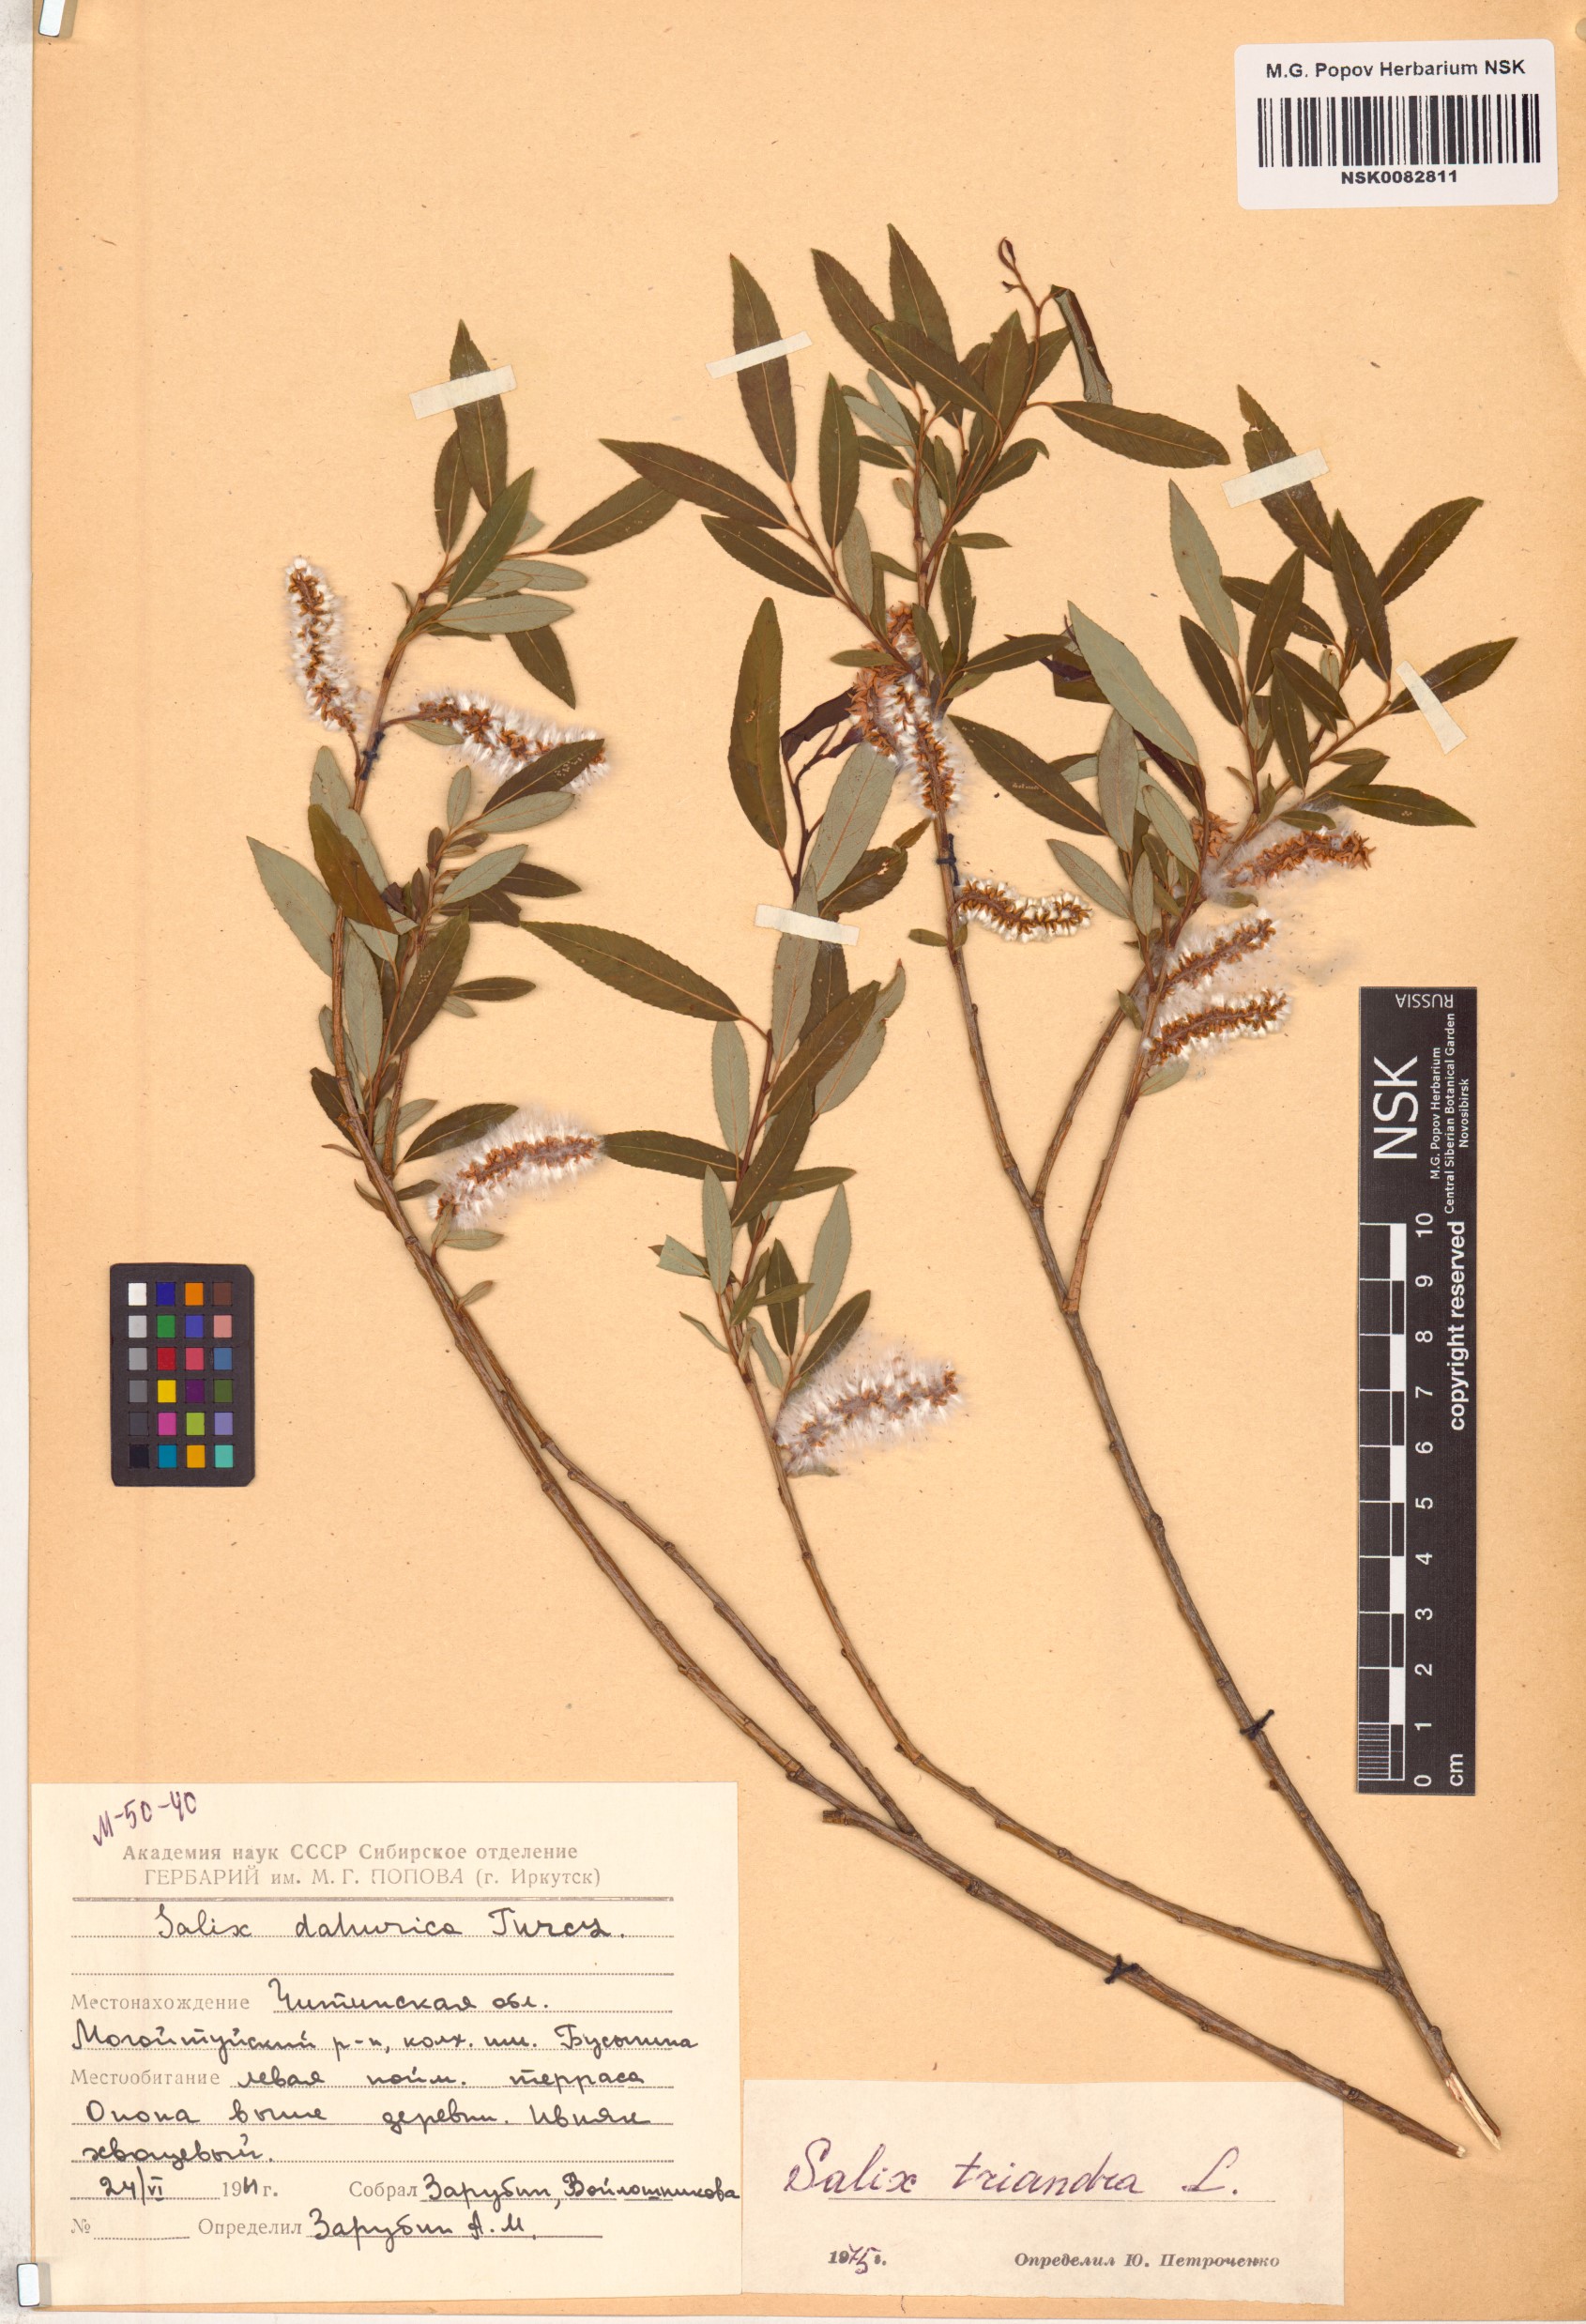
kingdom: Plantae
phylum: Tracheophyta
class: Magnoliopsida
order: Malpighiales
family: Salicaceae
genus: Salix
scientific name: Salix triandra
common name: Almond willow
